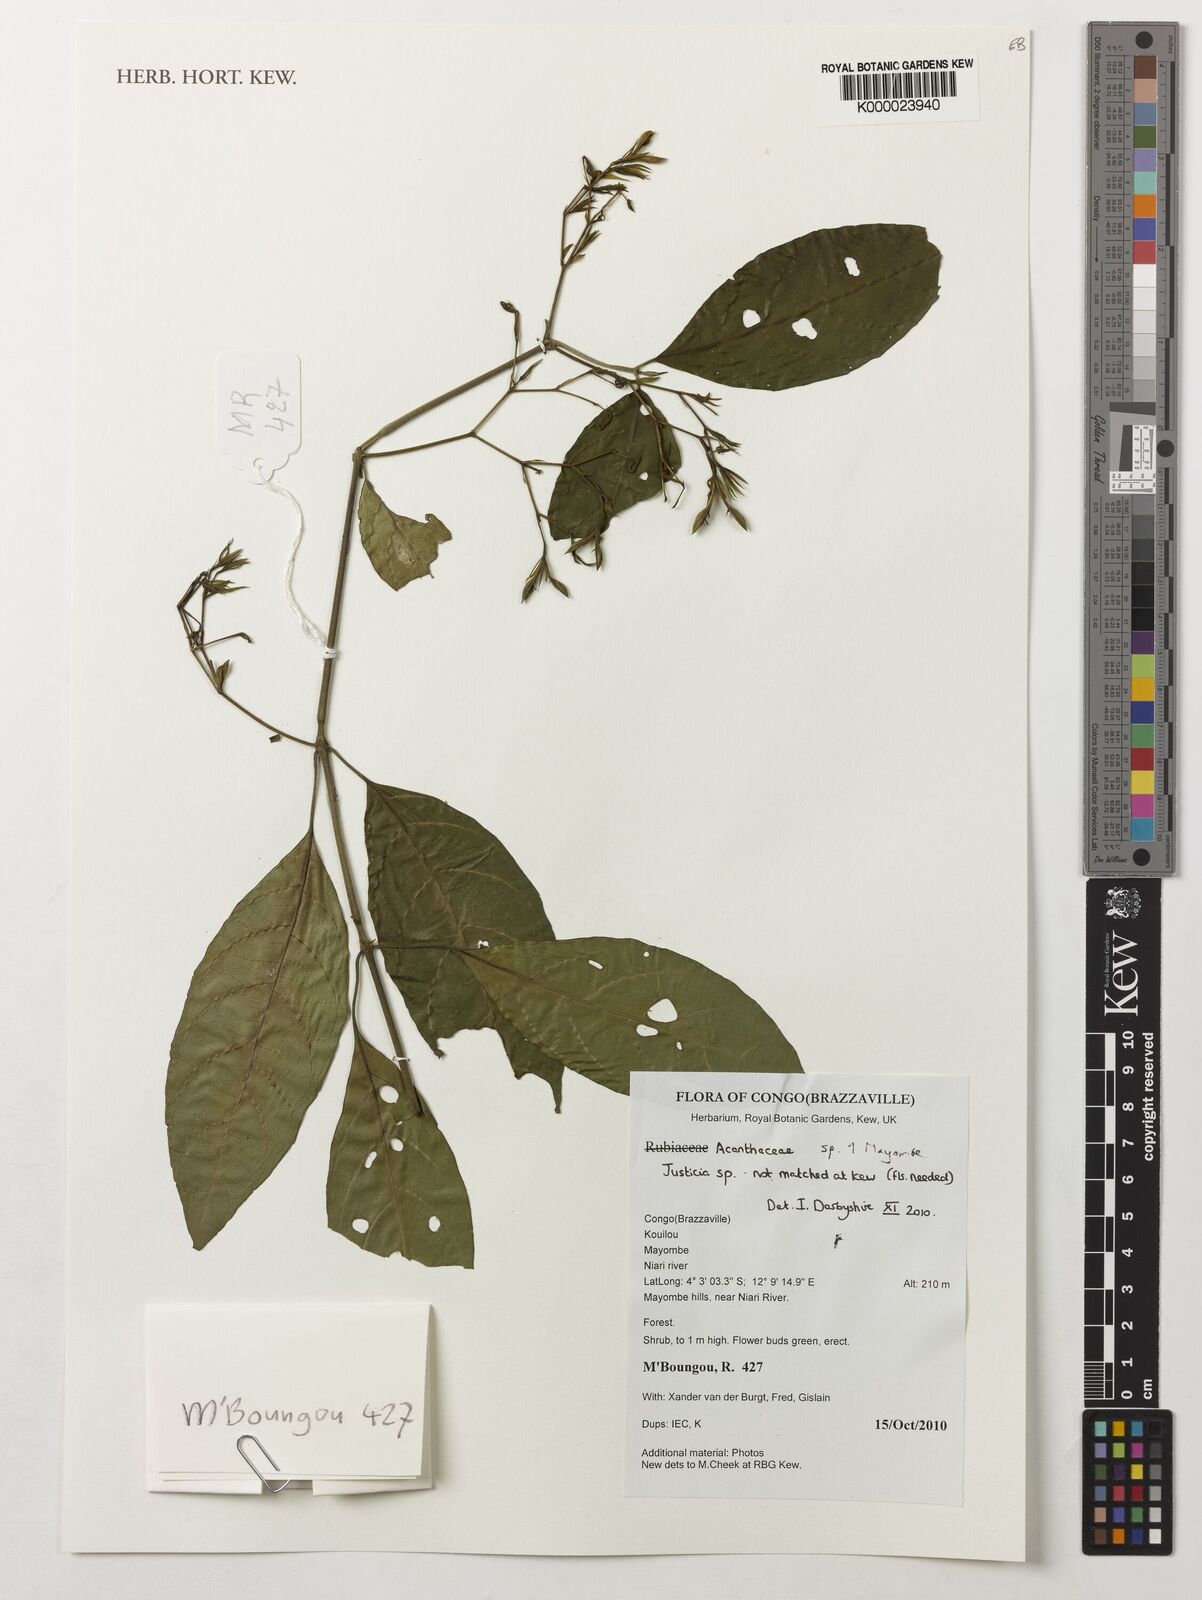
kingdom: Plantae
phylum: Tracheophyta
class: Magnoliopsida
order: Lamiales
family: Acanthaceae
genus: Justicia
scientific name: Justicia
